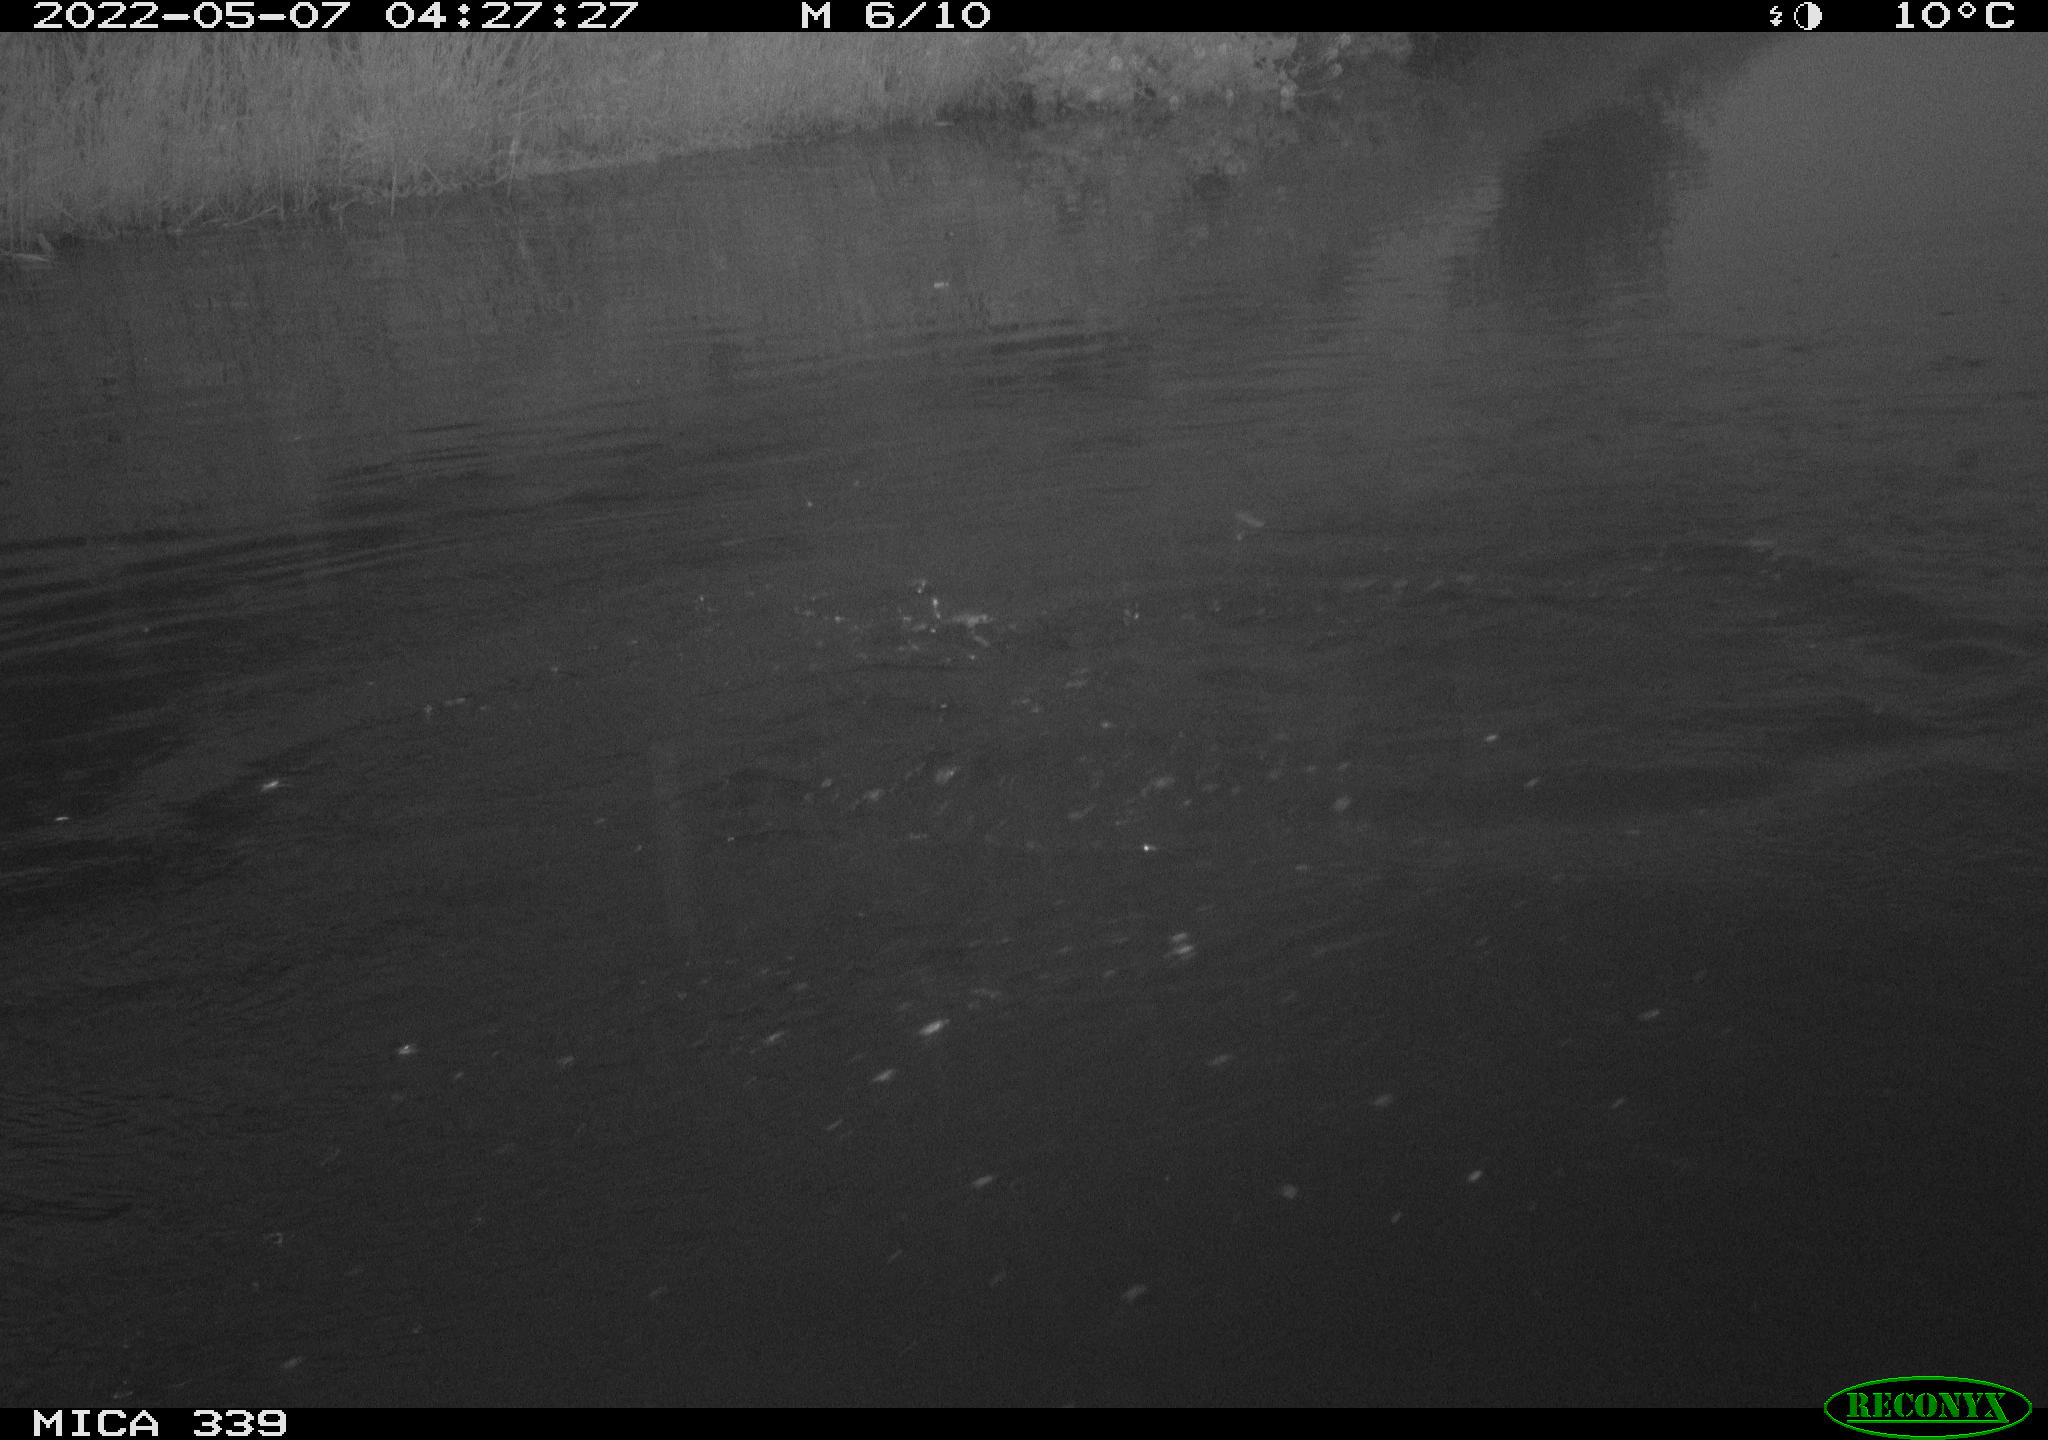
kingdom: Animalia
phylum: Chordata
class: Aves
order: Anseriformes
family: Anatidae
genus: Anas
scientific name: Anas platyrhynchos
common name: Mallard
